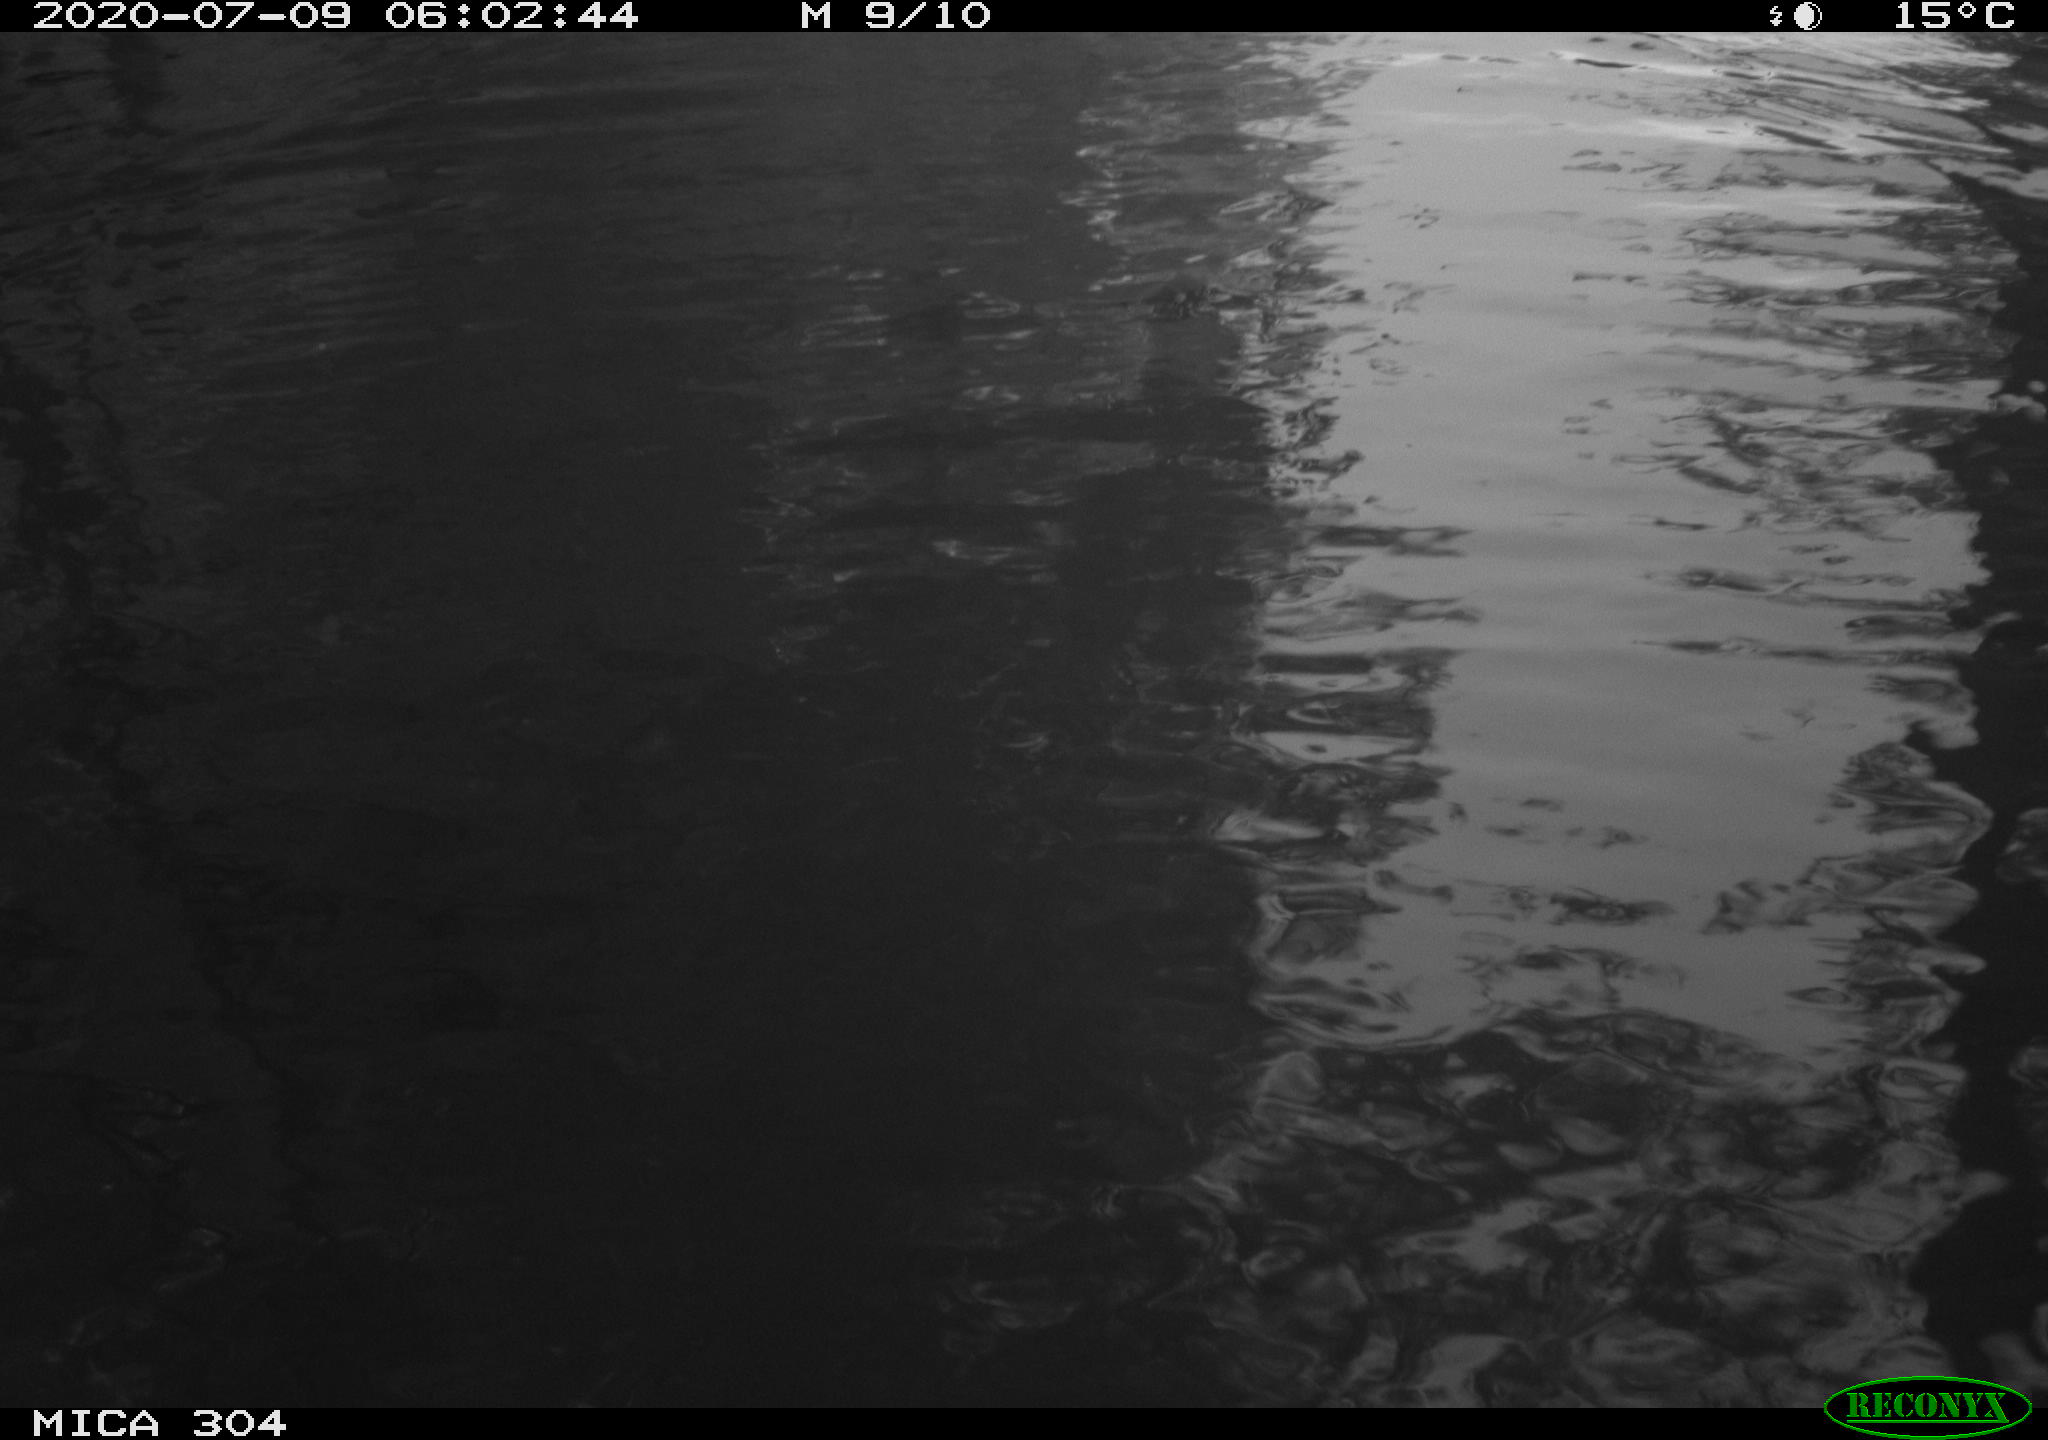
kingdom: Animalia
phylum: Chordata
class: Aves
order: Gruiformes
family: Rallidae
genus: Fulica
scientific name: Fulica atra
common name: Eurasian coot
